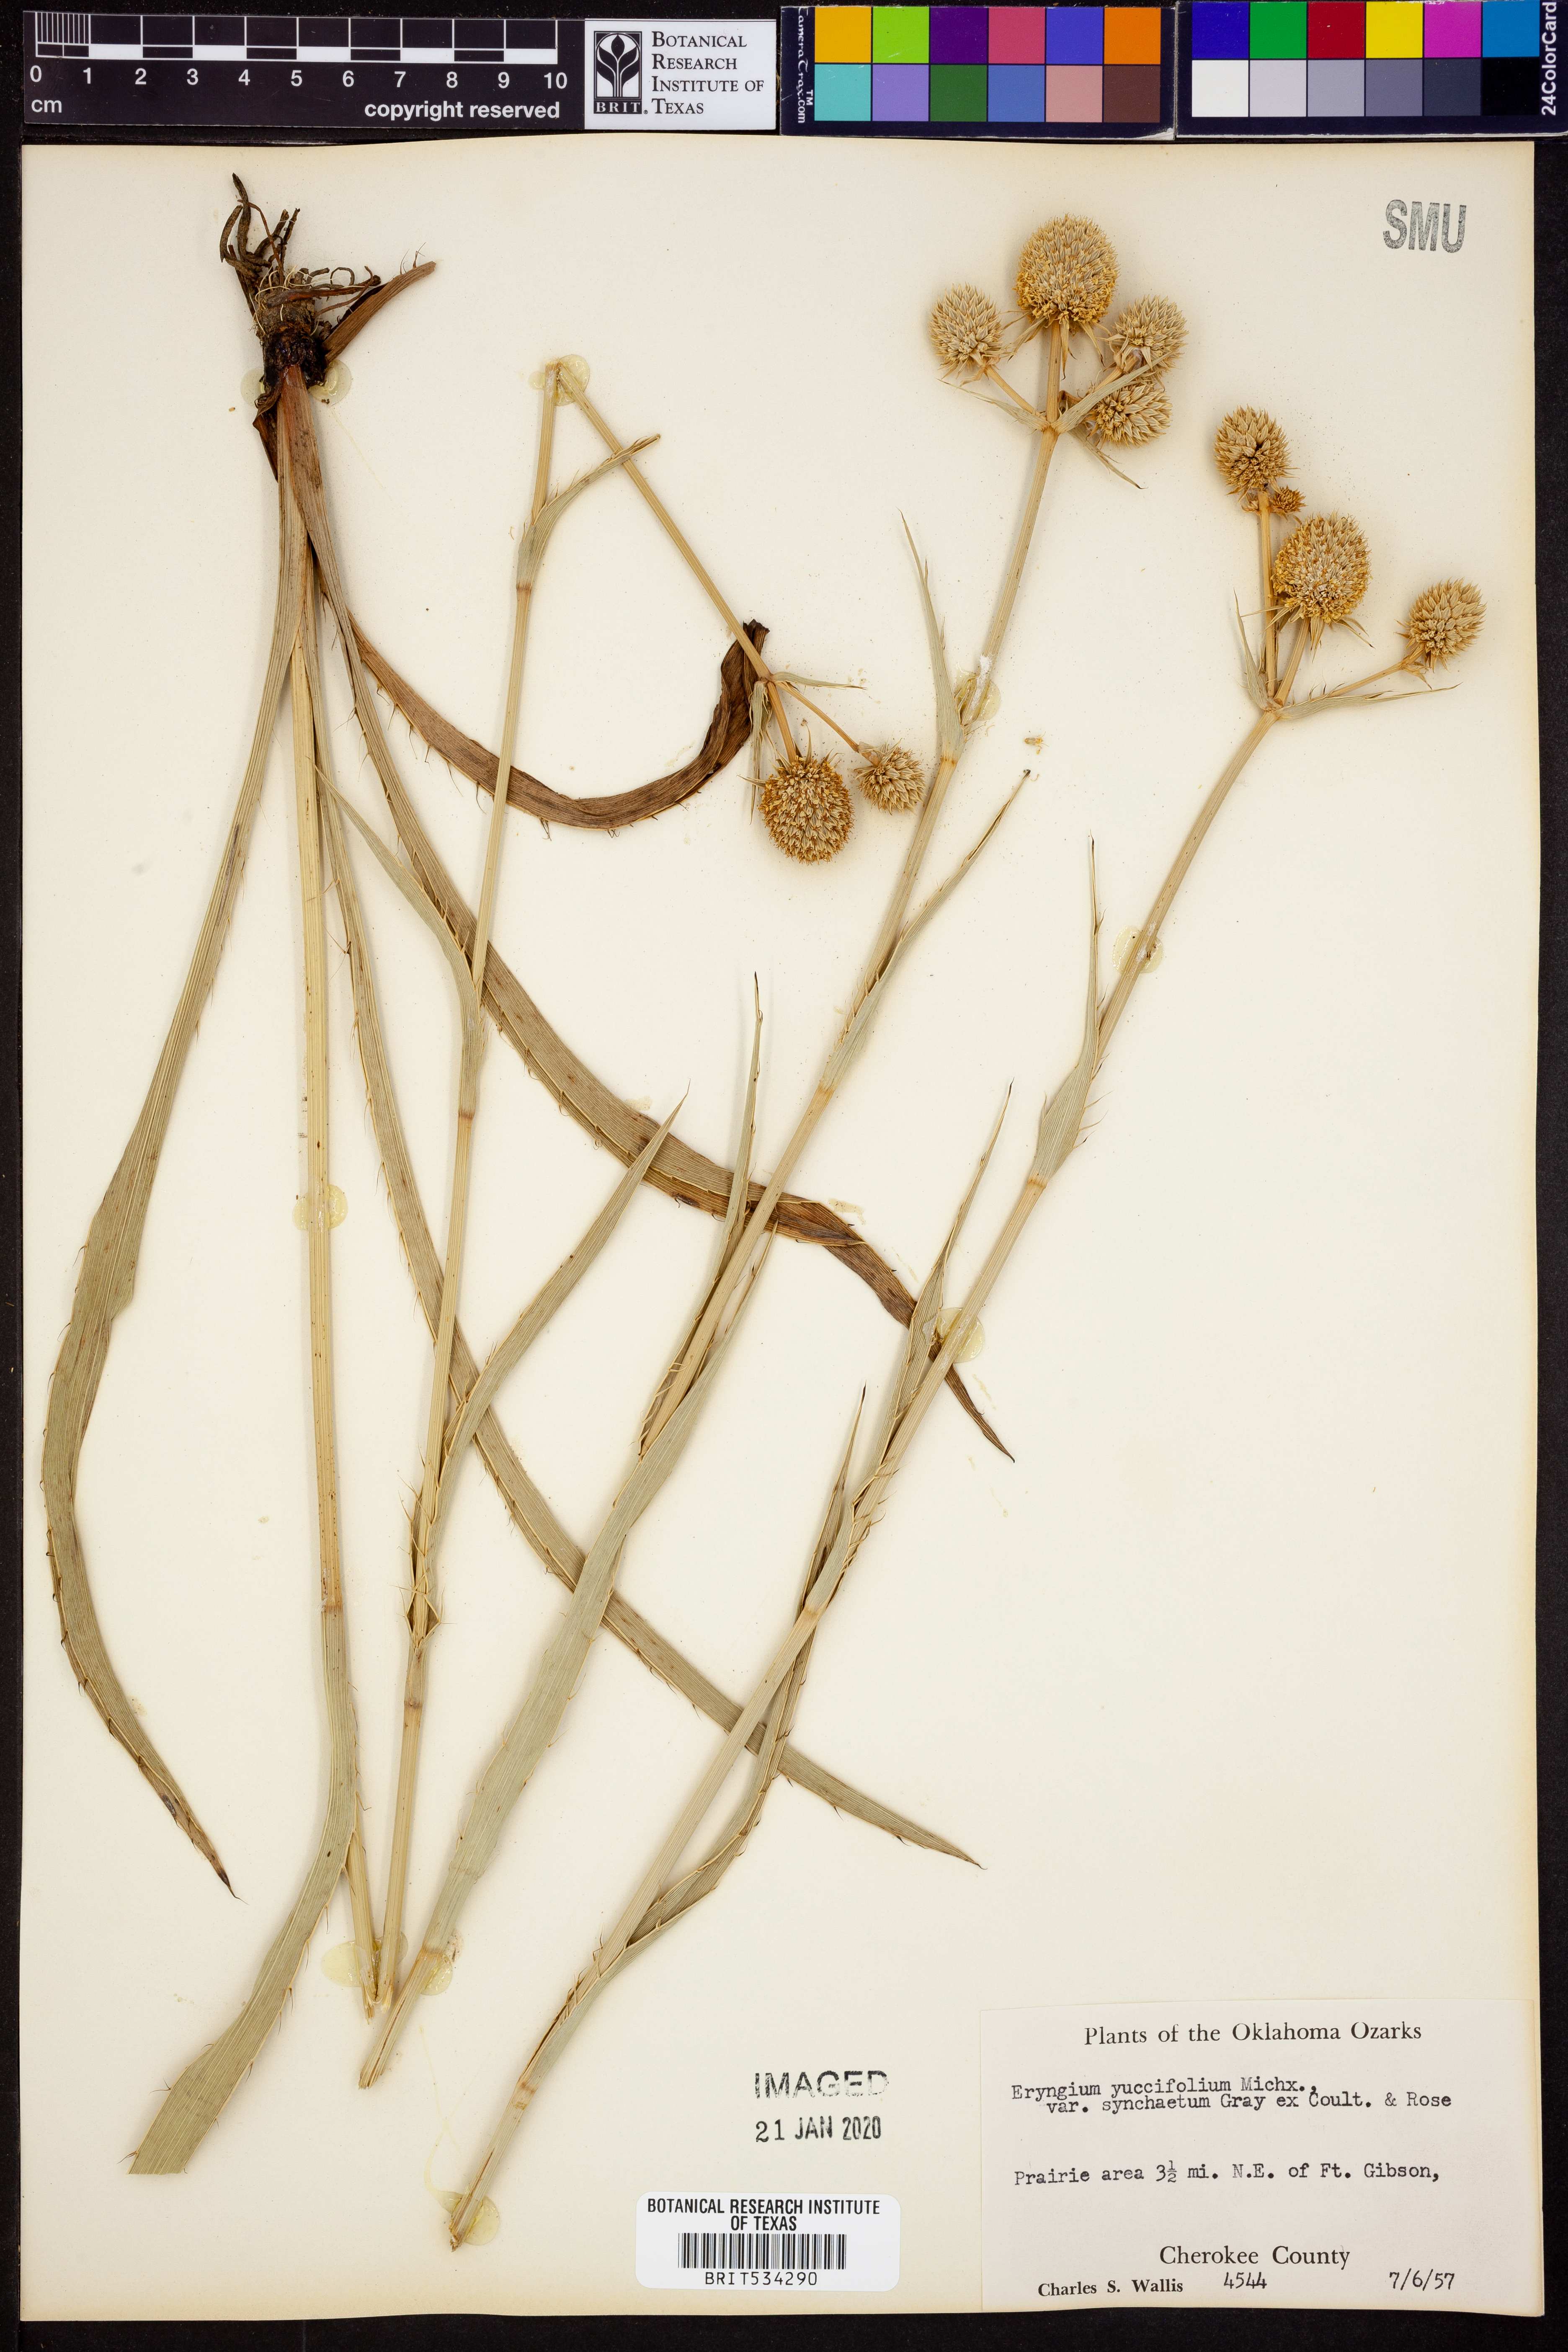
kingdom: Plantae
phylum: Tracheophyta
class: Magnoliopsida
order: Apiales
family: Apiaceae
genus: Eryngium
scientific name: Eryngium yuccifolium
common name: Button eryngo
